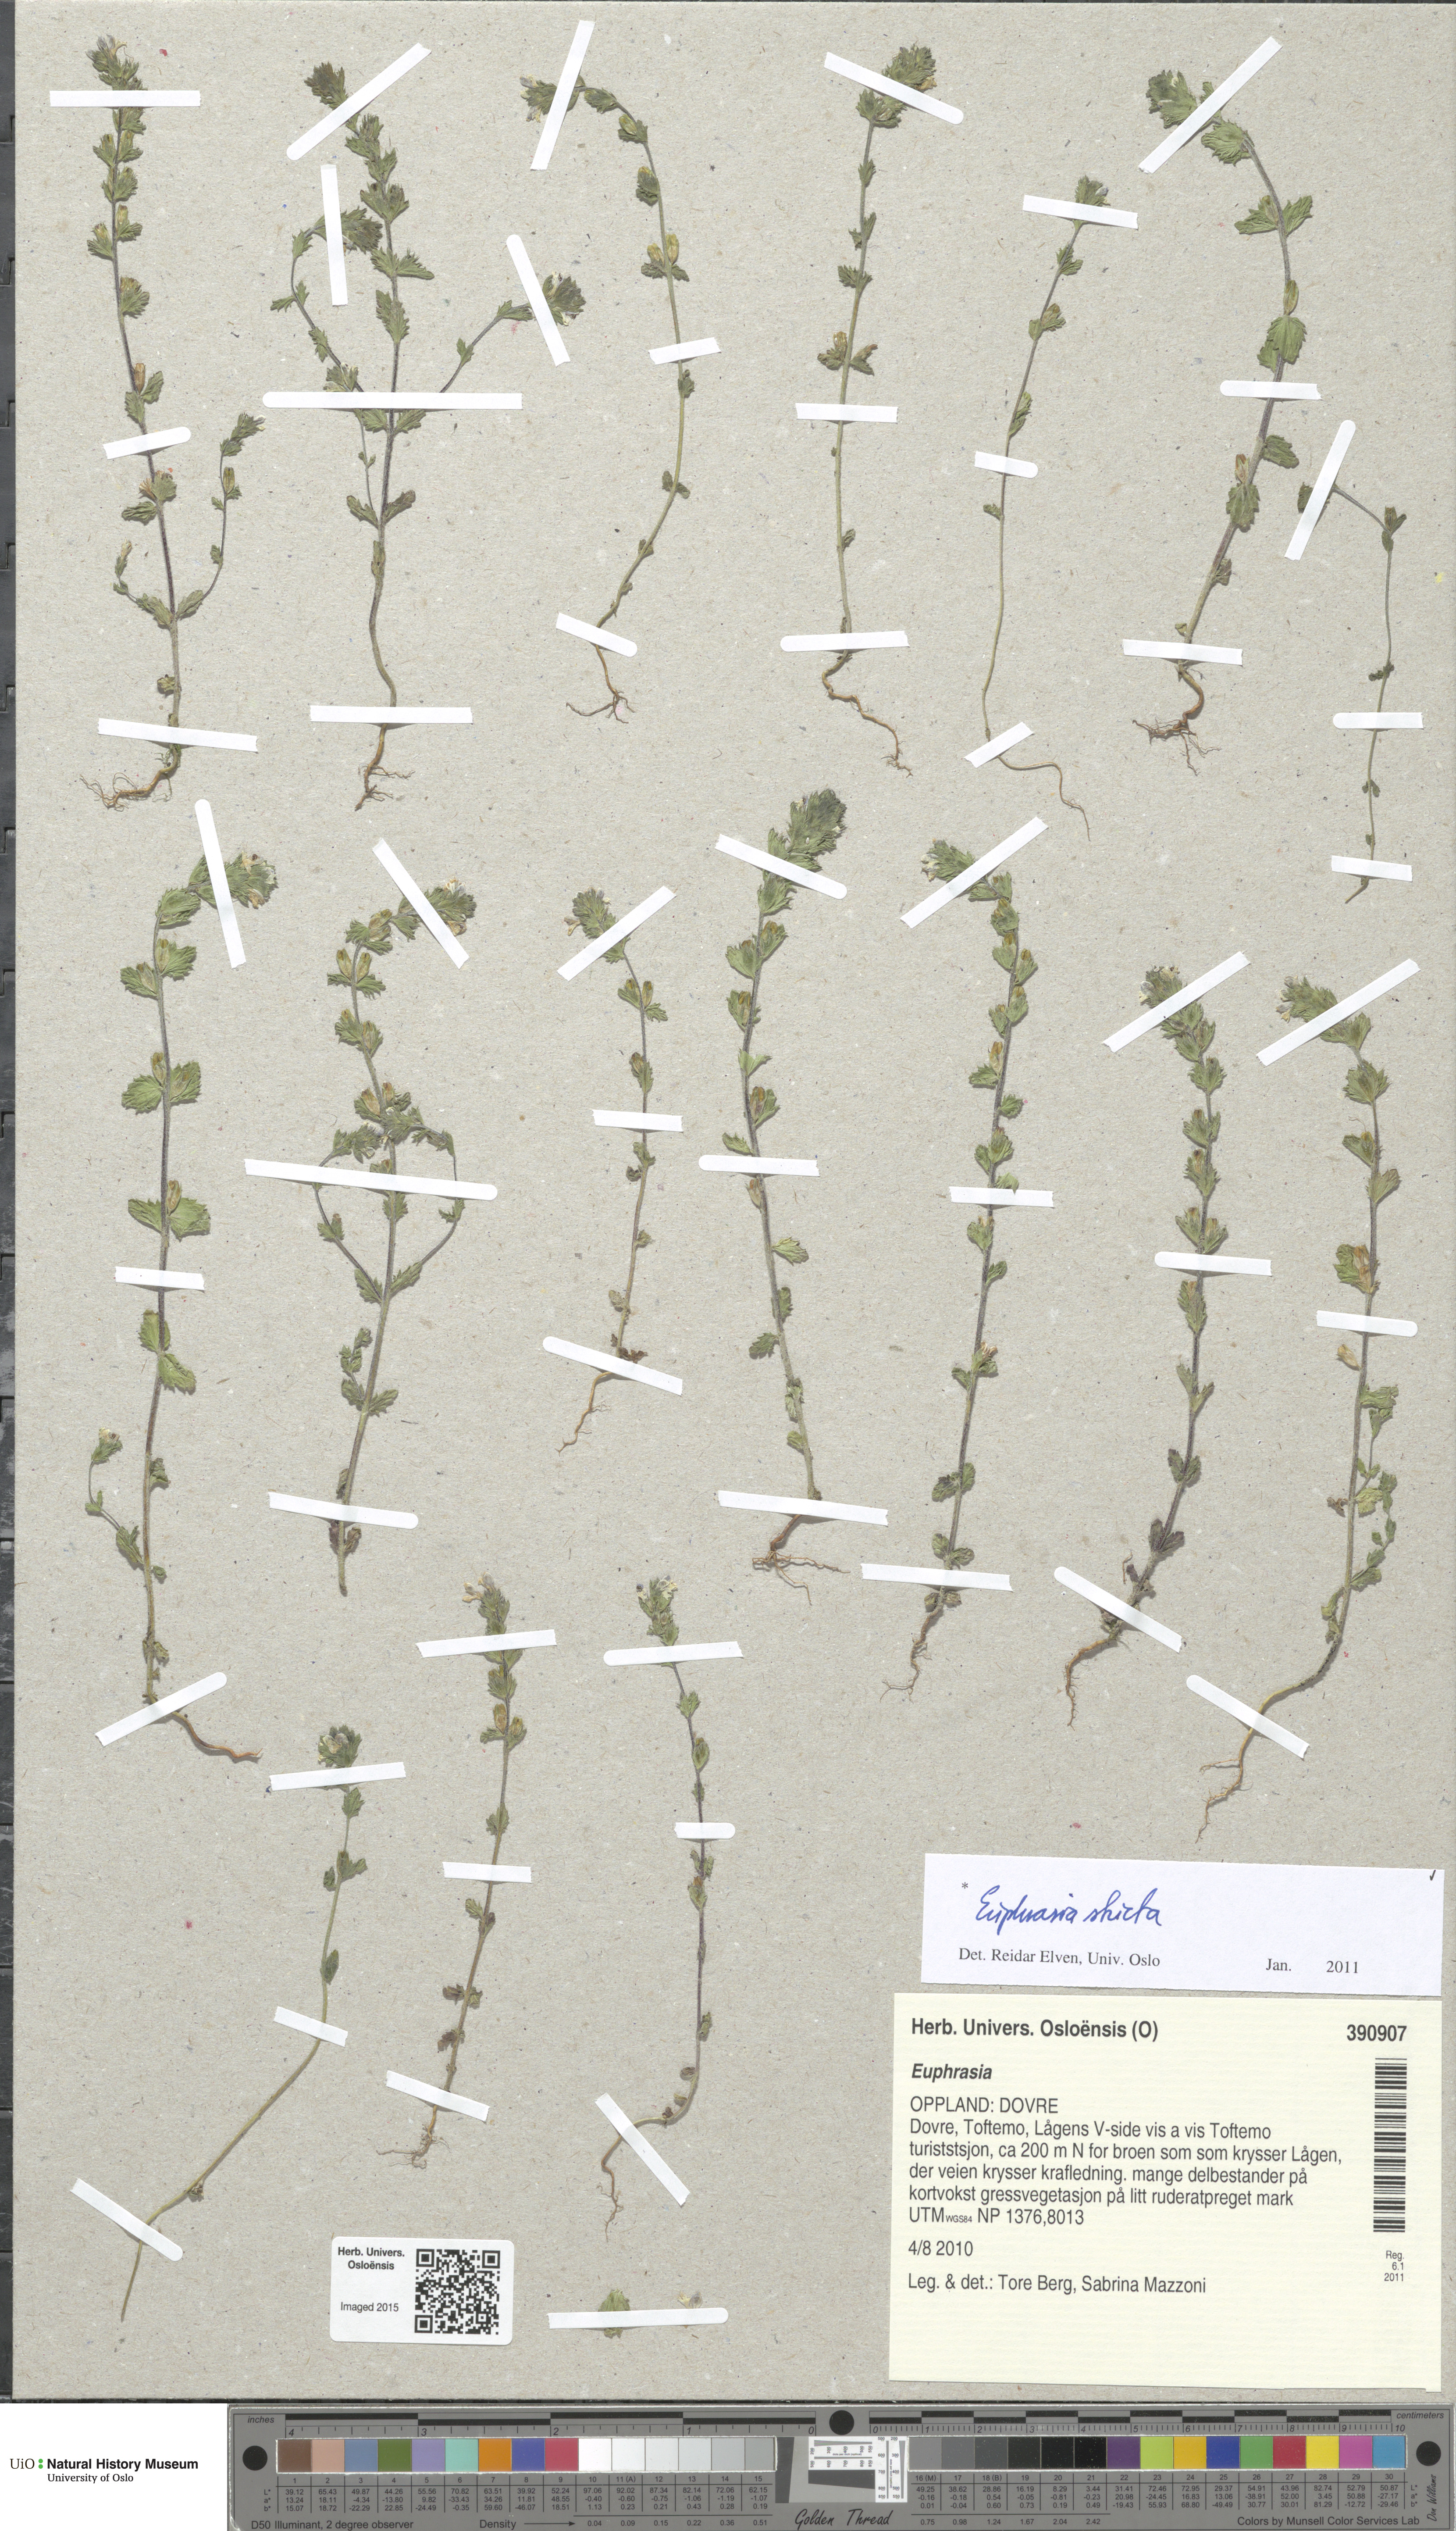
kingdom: Plantae
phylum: Tracheophyta
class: Magnoliopsida
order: Lamiales
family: Orobanchaceae
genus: Euphrasia
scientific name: Euphrasia stricta
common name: Drug eyebright
